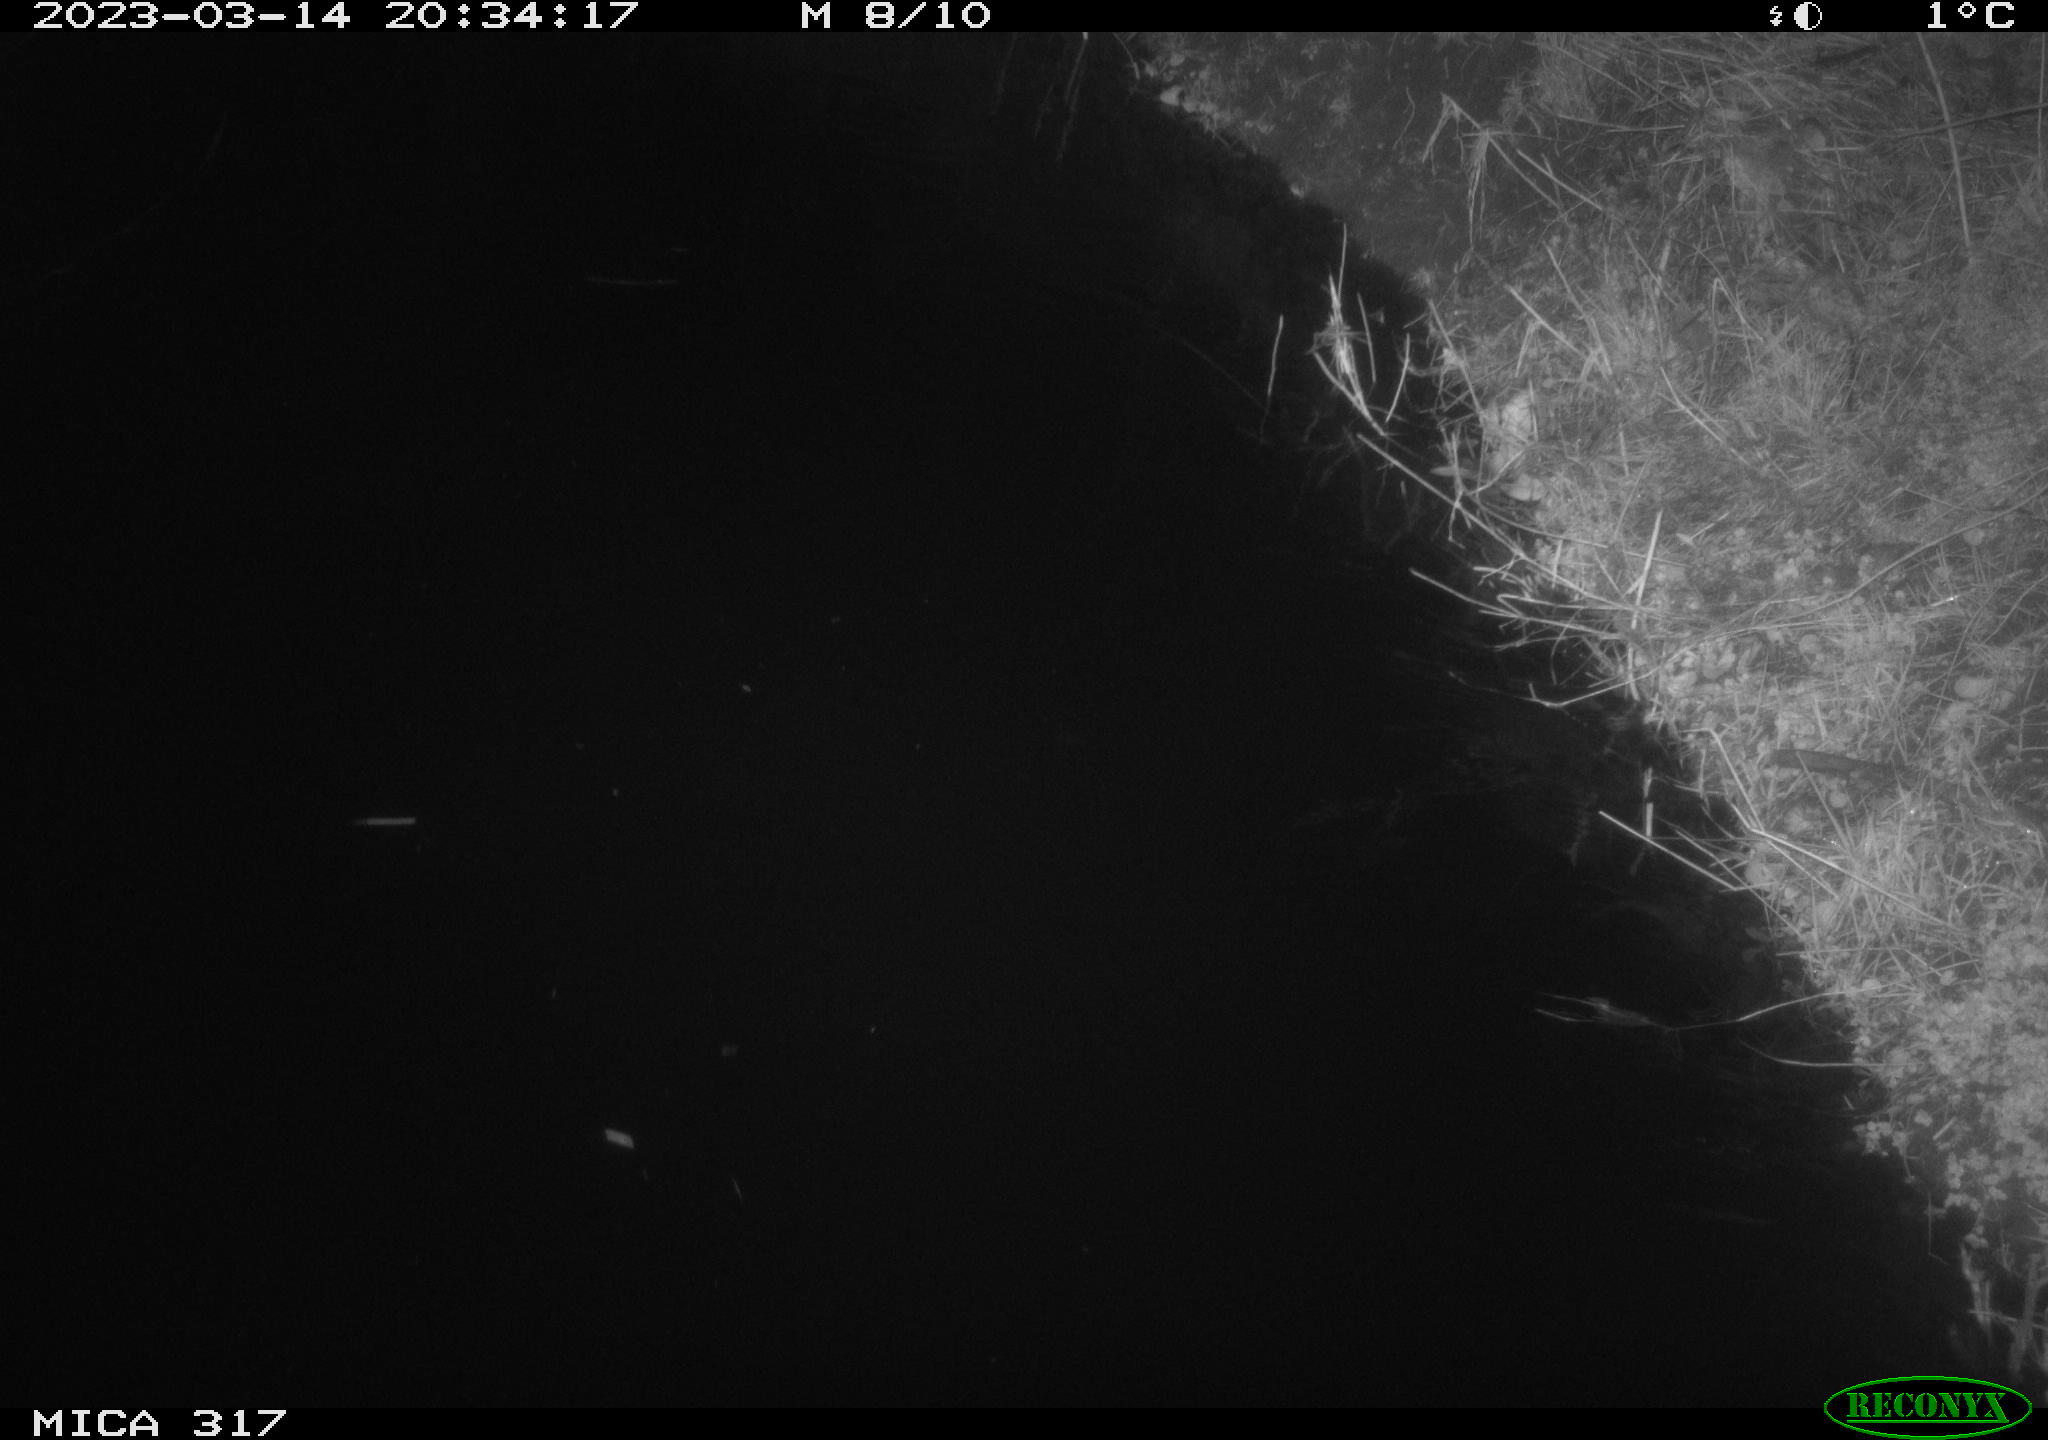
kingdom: Animalia
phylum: Chordata
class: Mammalia
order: Rodentia
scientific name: Rodentia
